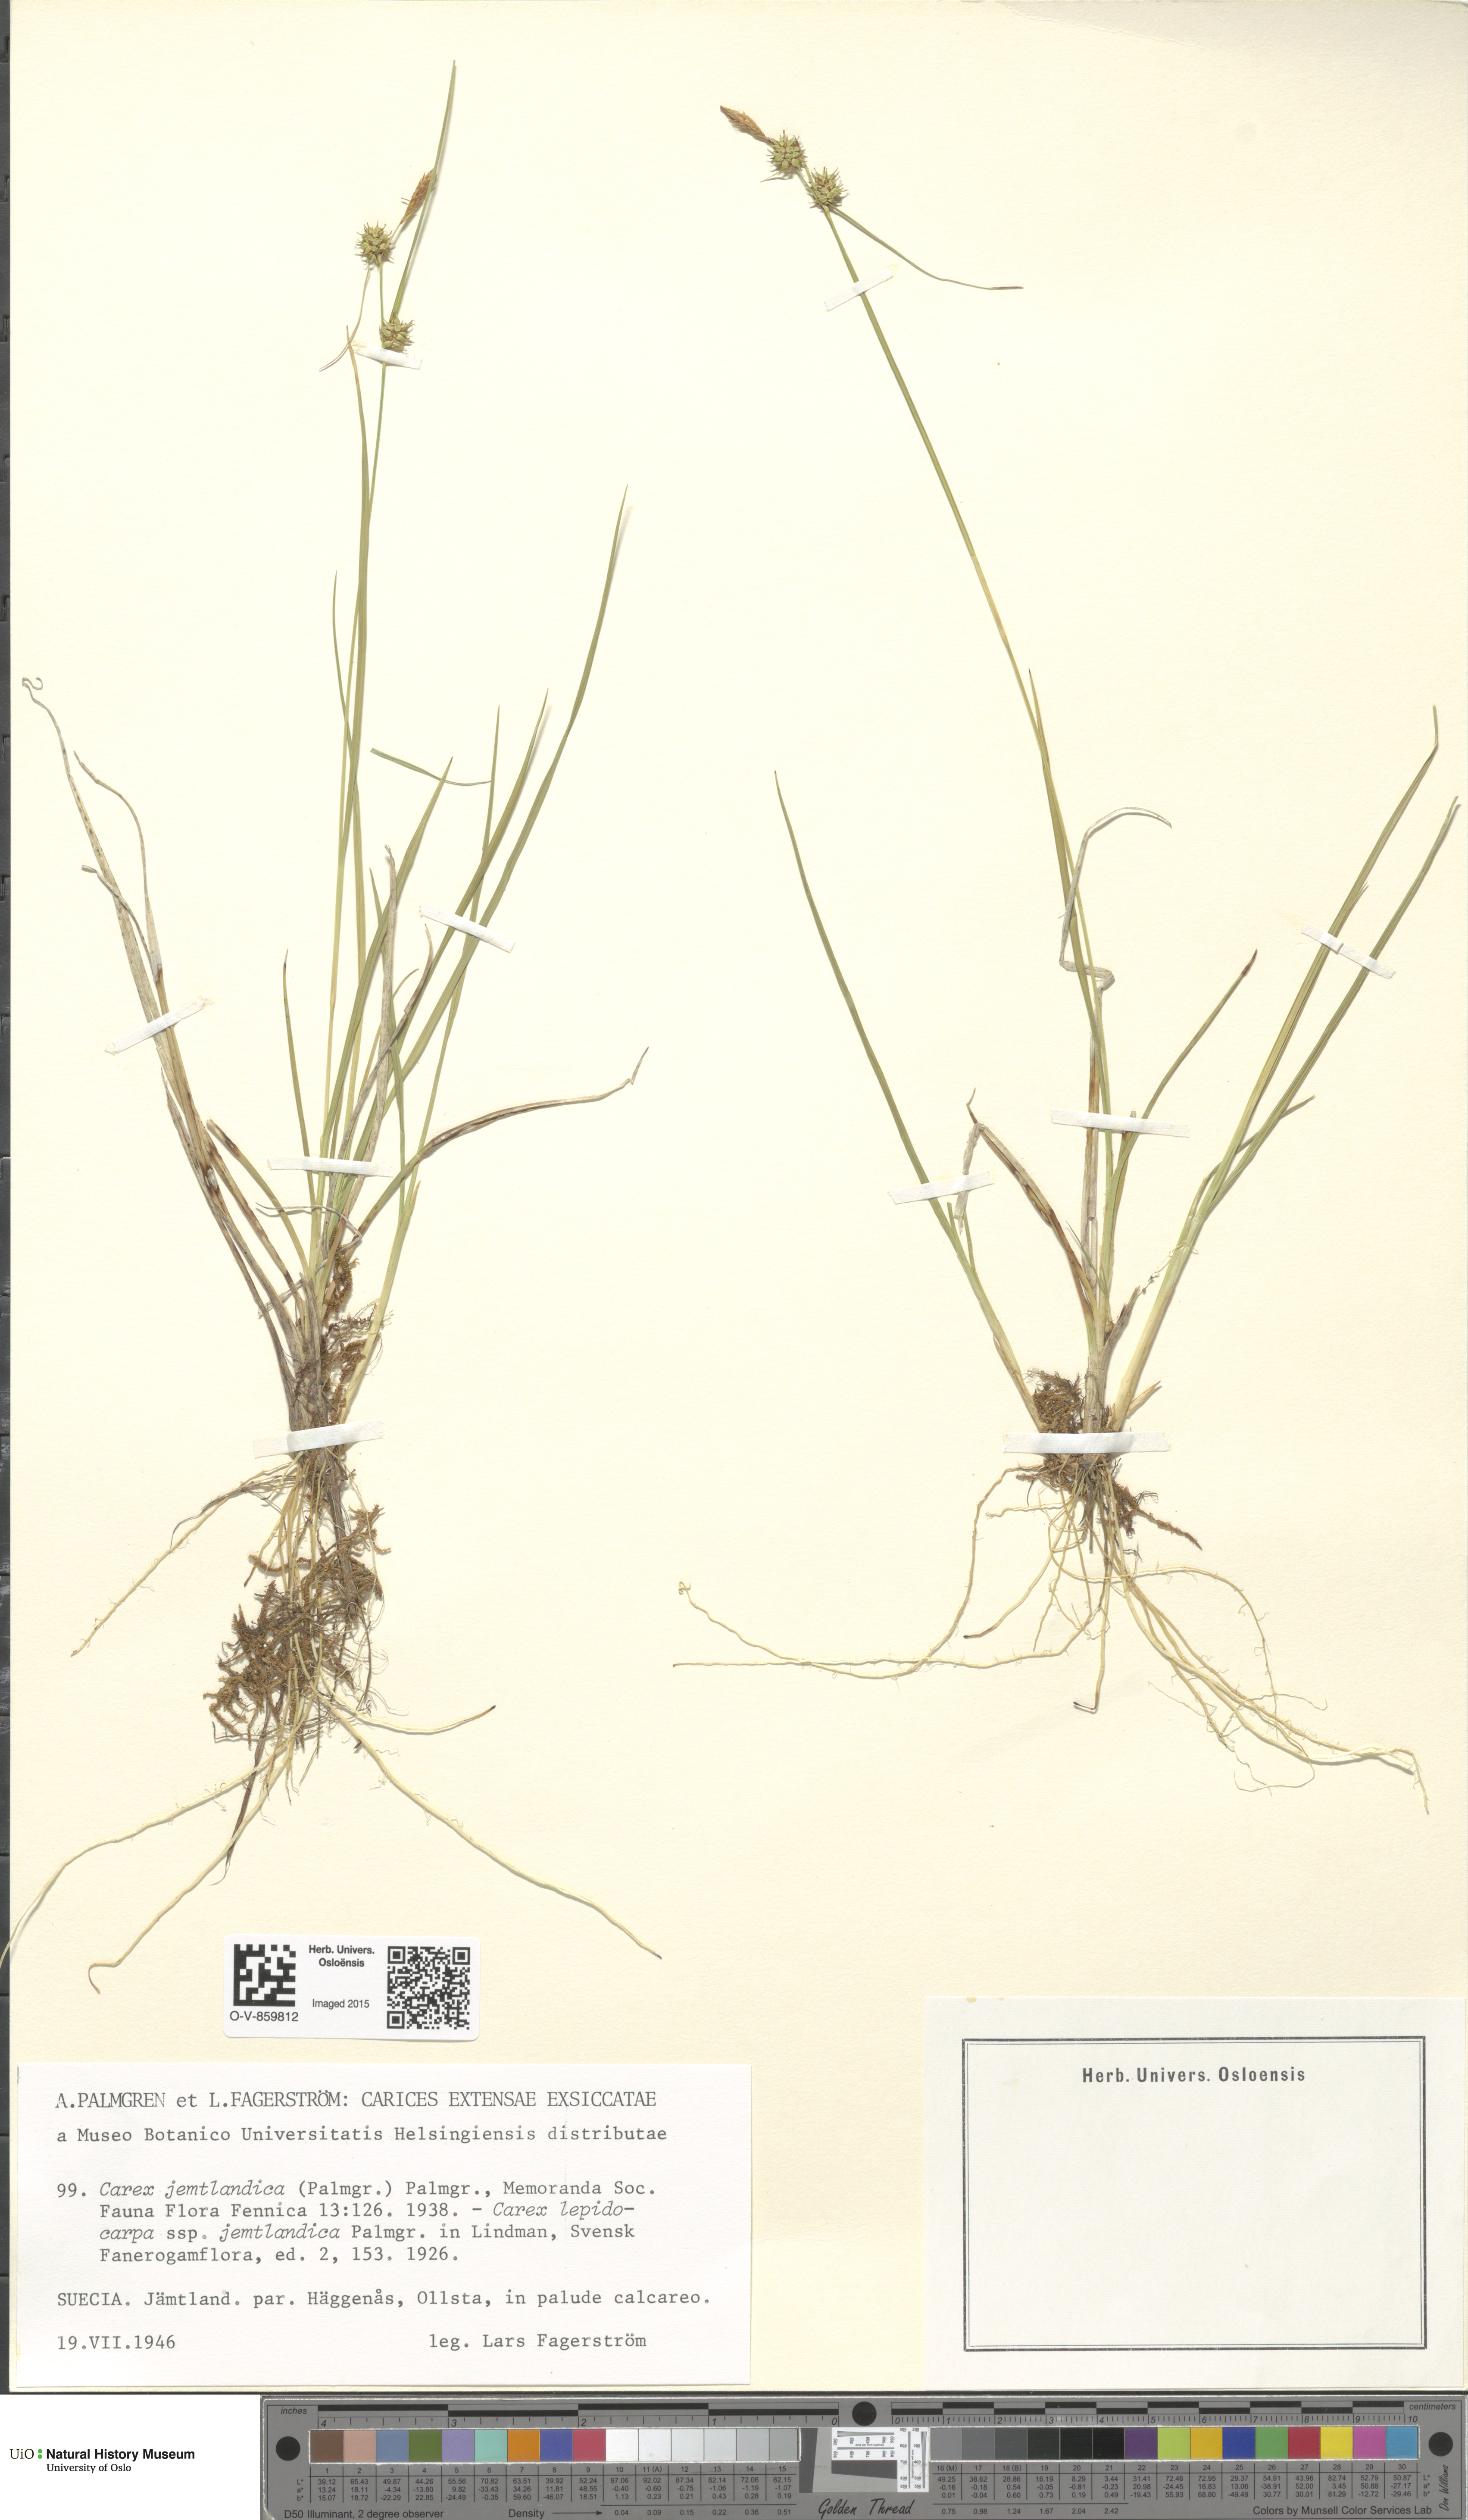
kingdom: Plantae
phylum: Tracheophyta
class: Liliopsida
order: Poales
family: Cyperaceae
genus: Carex
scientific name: Carex lepidocarpa
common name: Long-stalked yellow-sedge
